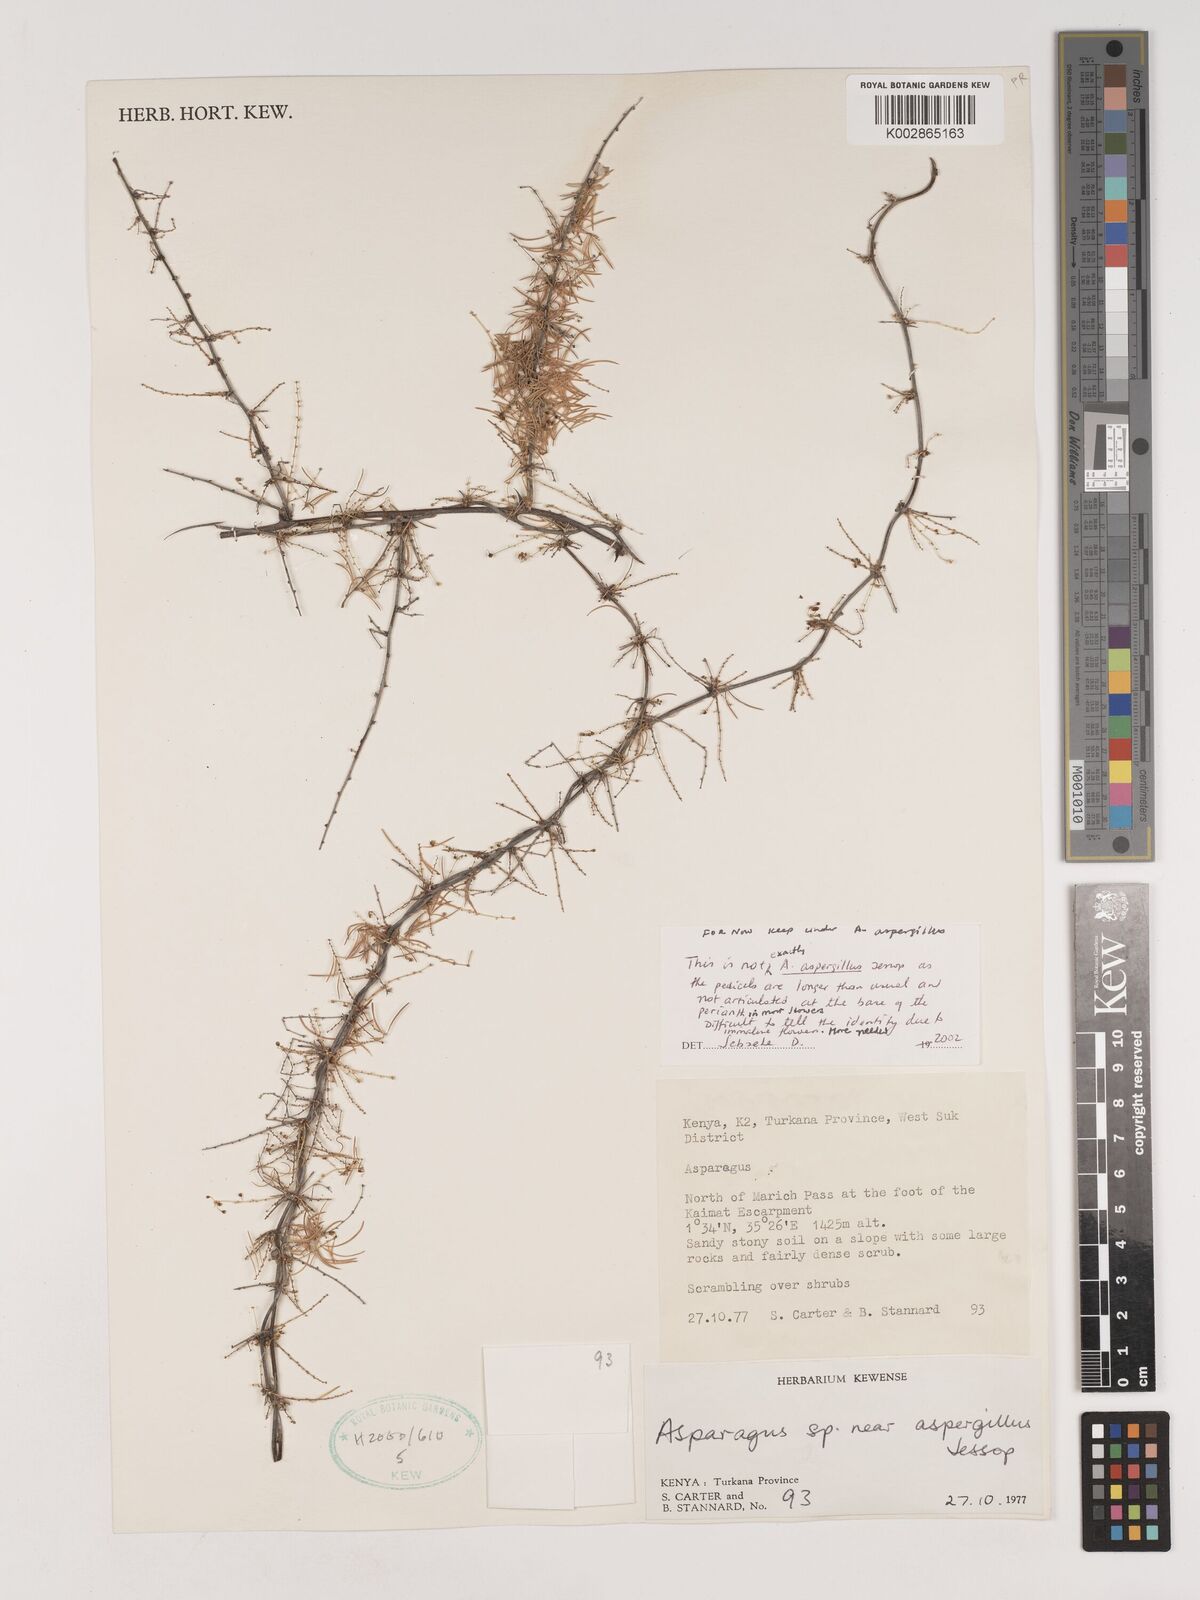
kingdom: Plantae
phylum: Tracheophyta
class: Liliopsida
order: Asparagales
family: Asparagaceae
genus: Asparagus
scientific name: Asparagus aspergillus
